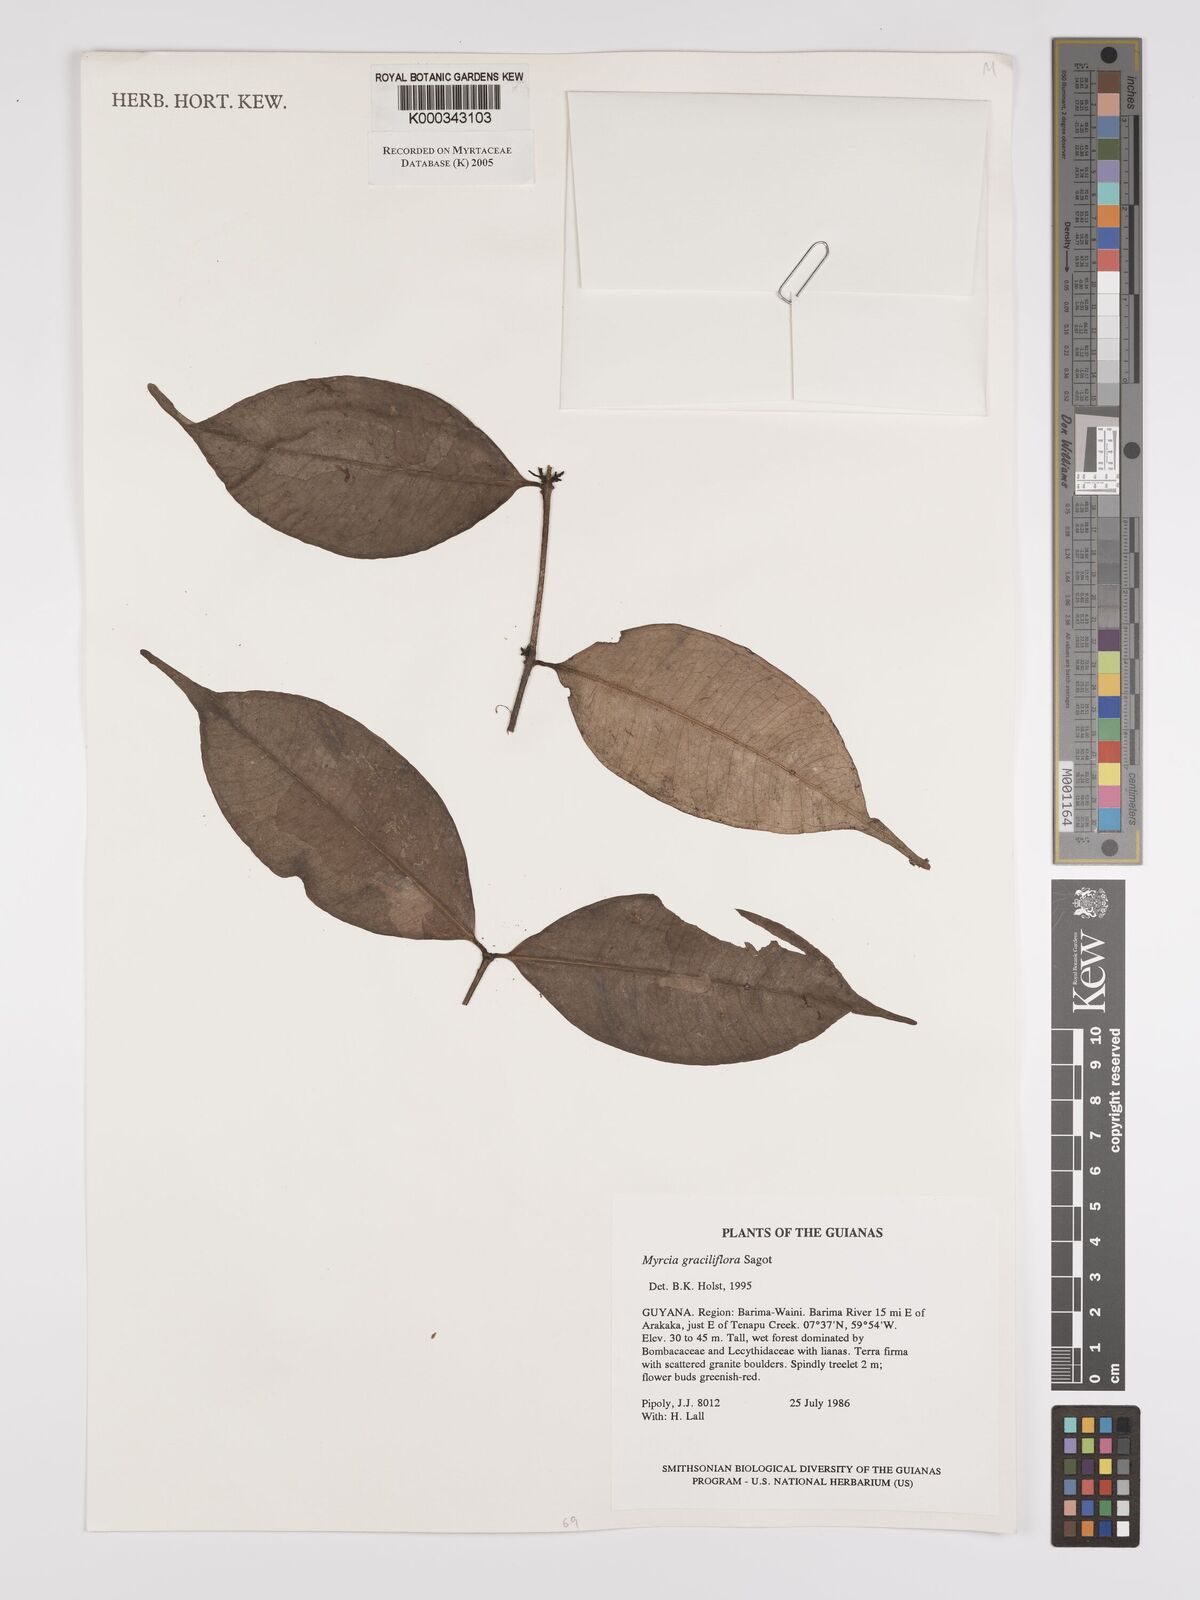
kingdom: Plantae
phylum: Tracheophyta
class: Magnoliopsida
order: Myrtales
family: Myrtaceae
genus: Myrcia
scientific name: Myrcia graciliflora
